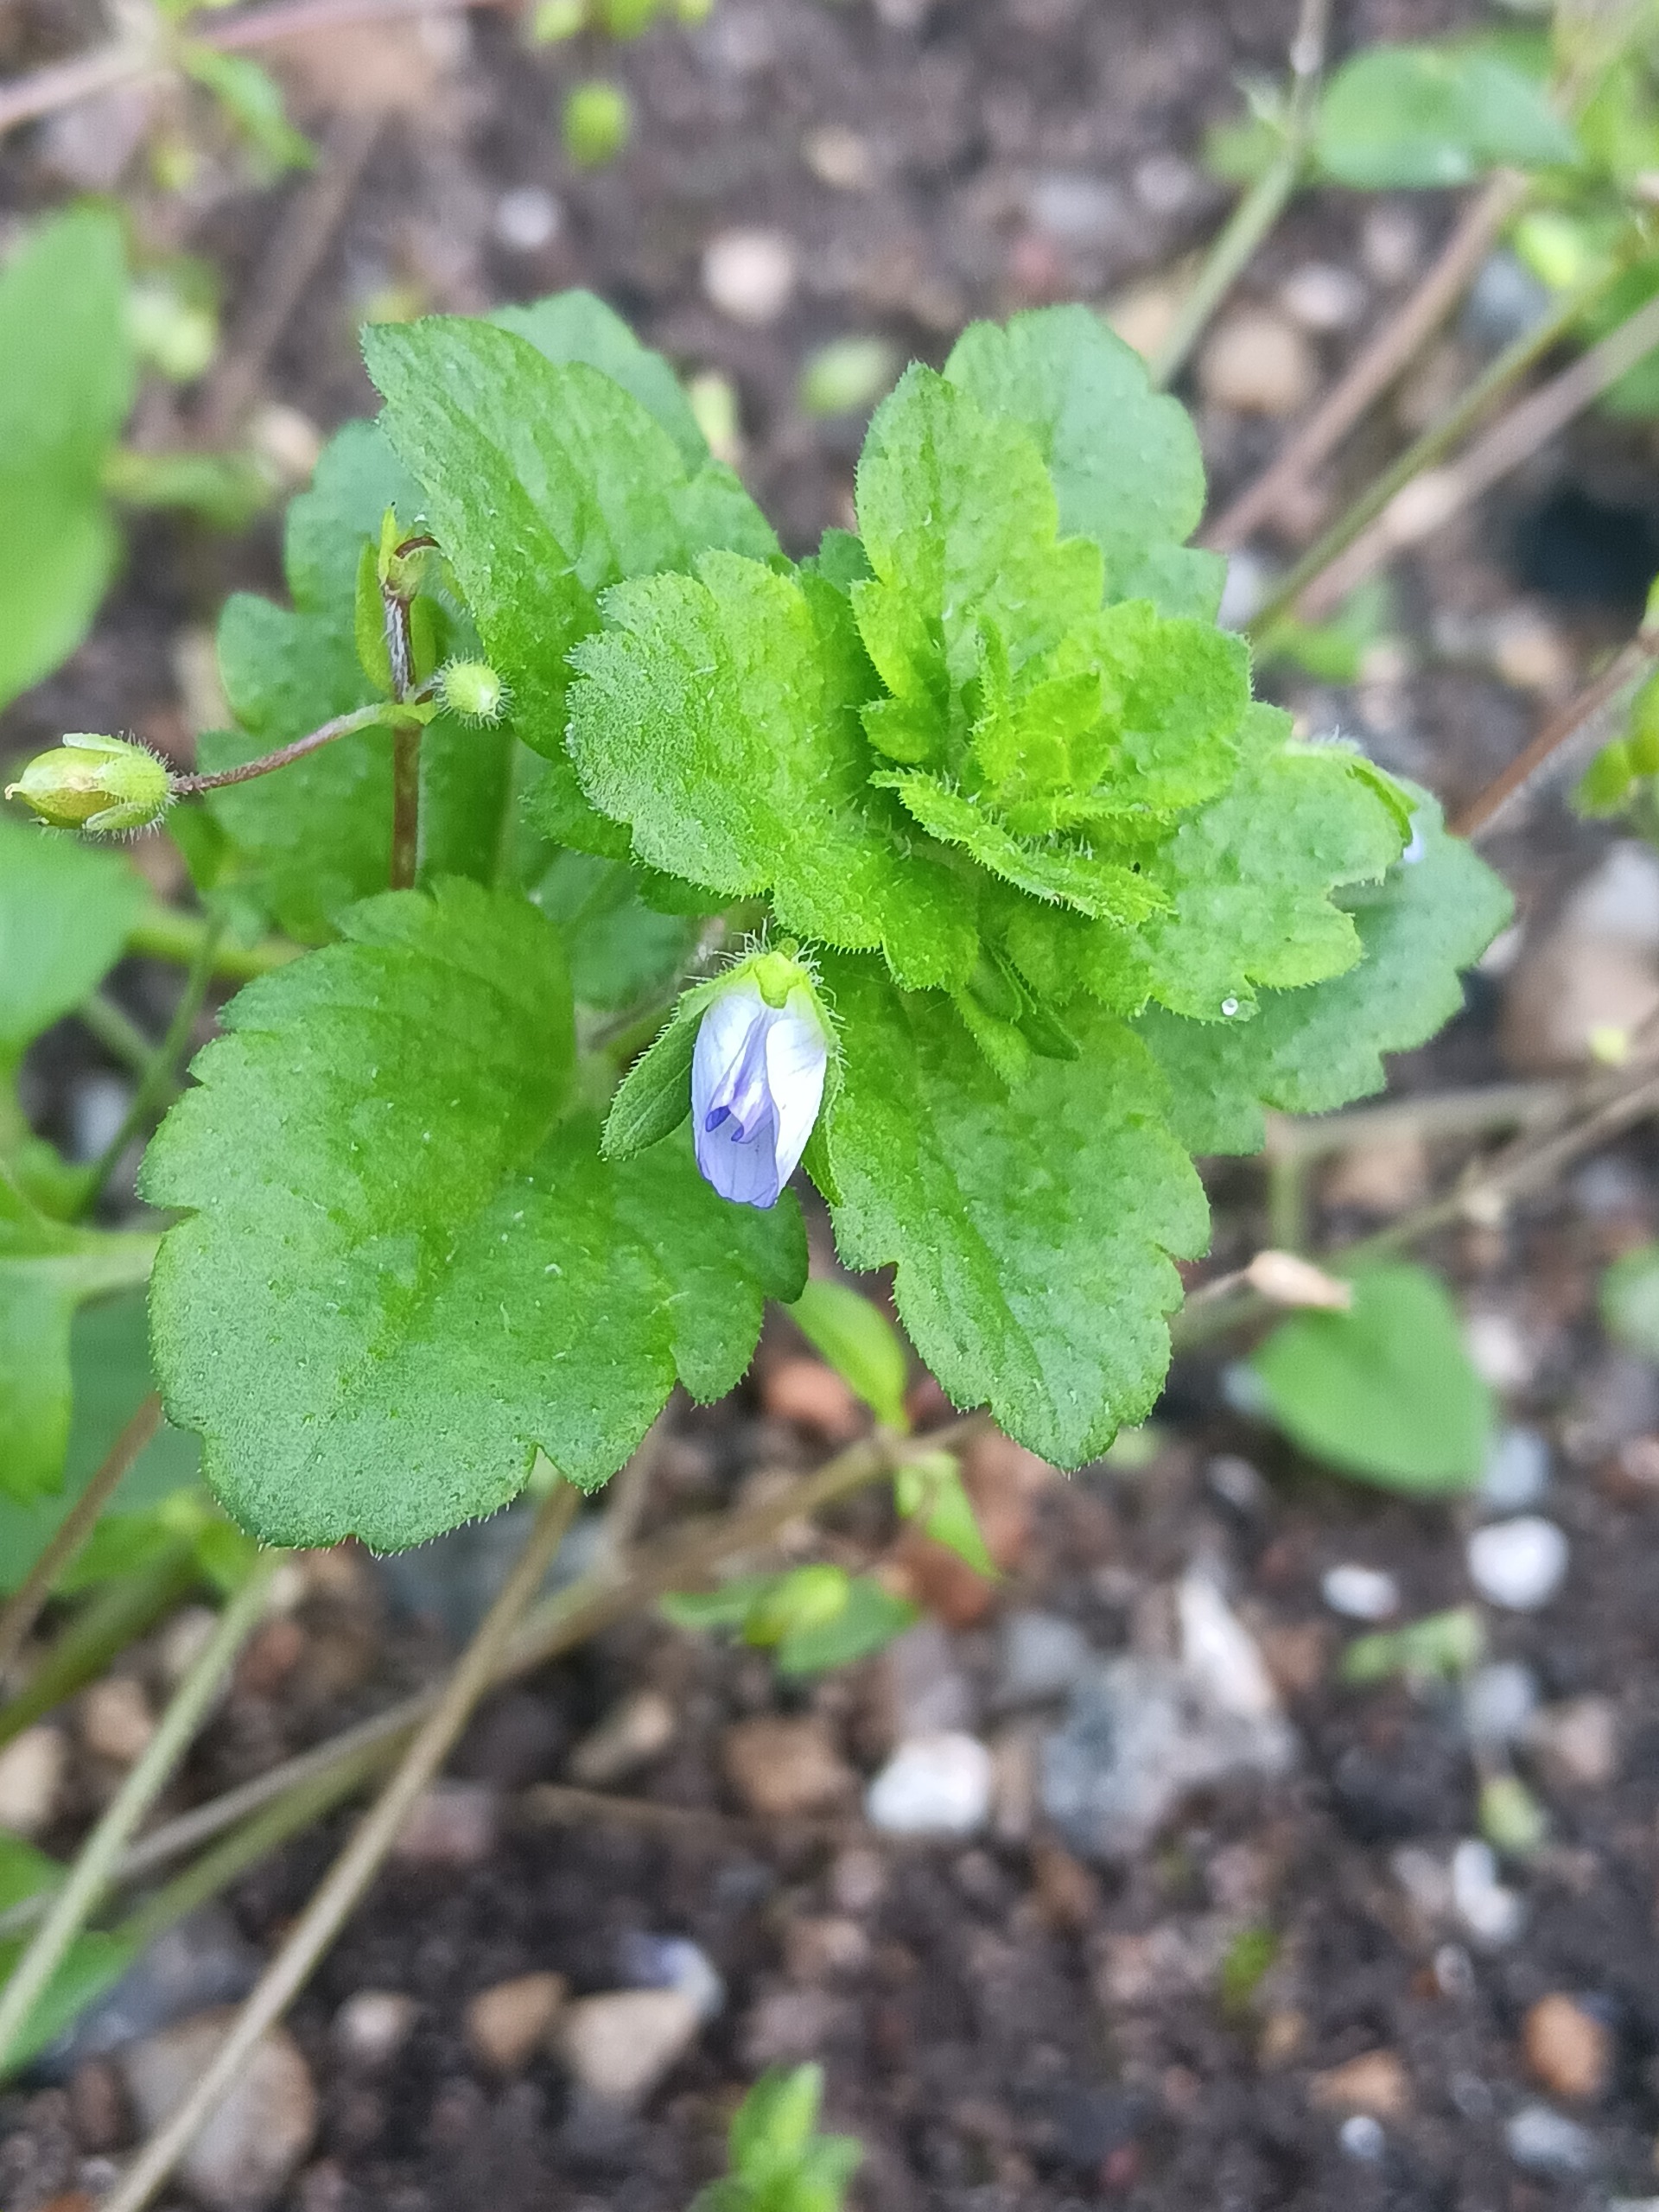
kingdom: Plantae
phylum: Tracheophyta
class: Magnoliopsida
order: Lamiales
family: Plantaginaceae
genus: Veronica
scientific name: Veronica persica
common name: Storkronet ærenpris
